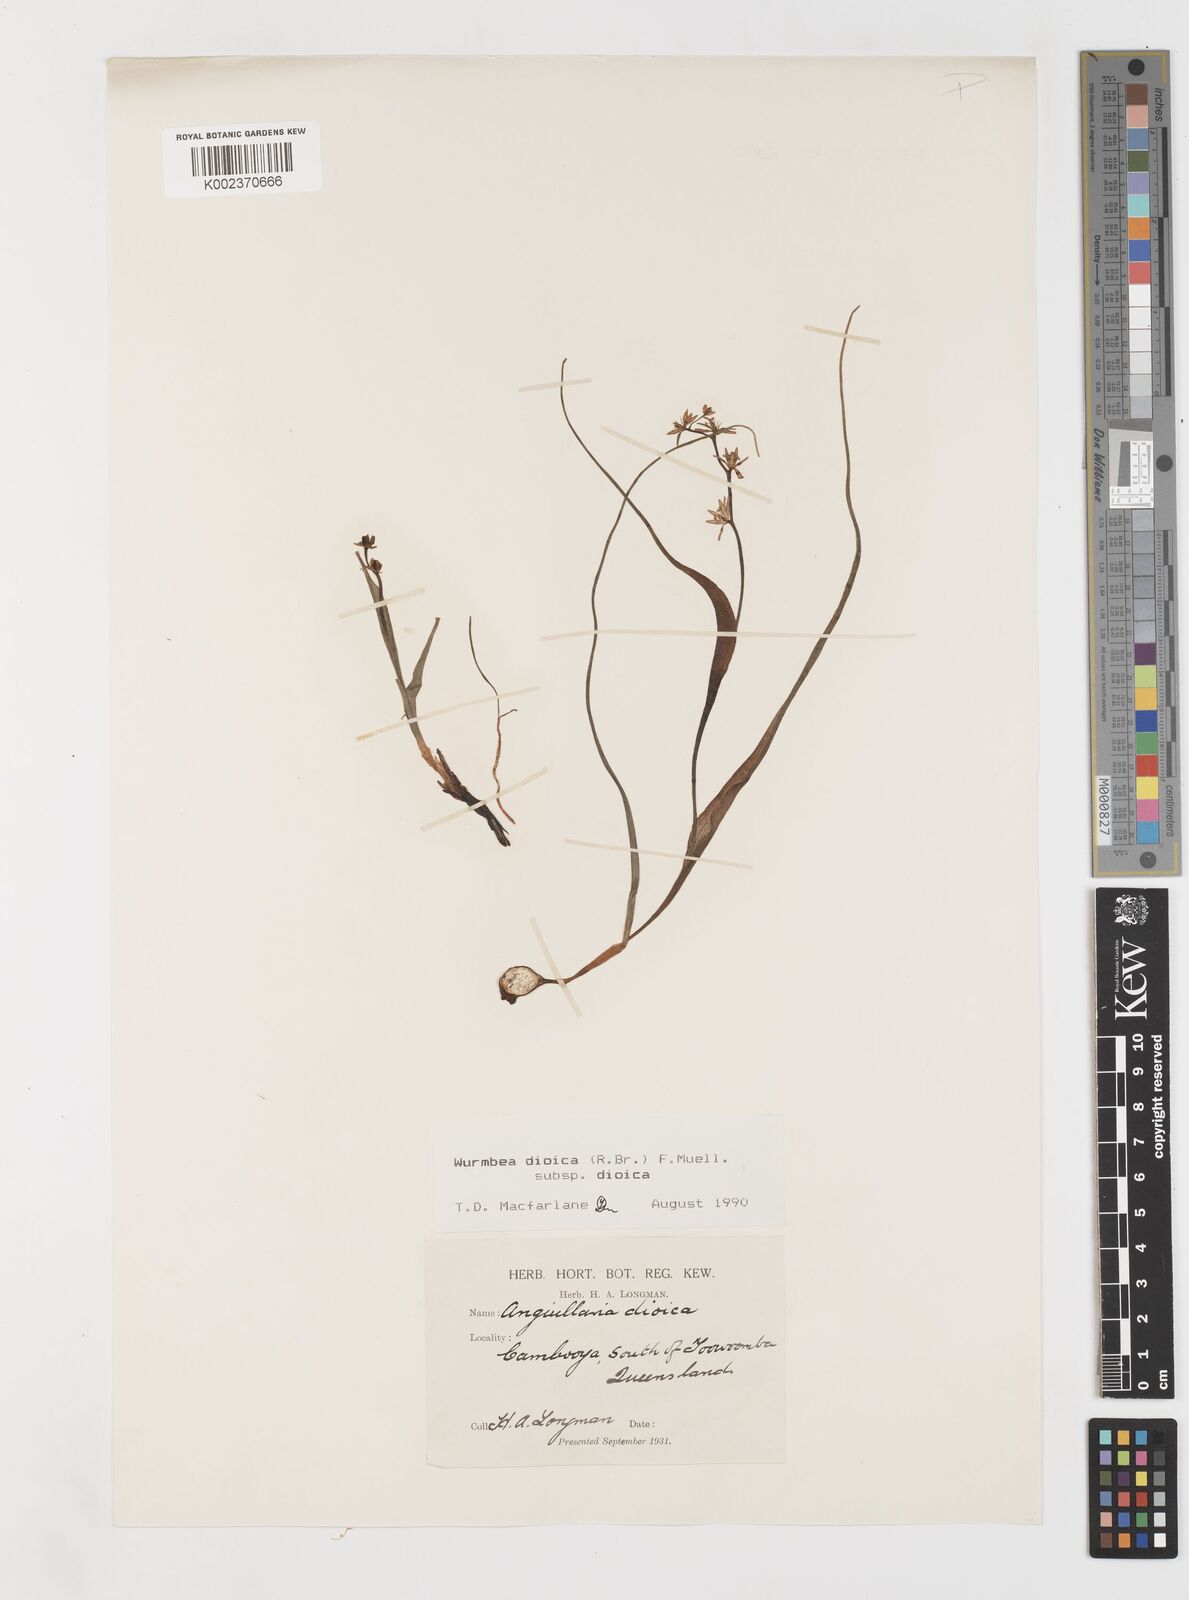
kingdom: Plantae
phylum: Tracheophyta
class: Liliopsida
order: Liliales
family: Colchicaceae
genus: Wurmbea
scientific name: Wurmbea dioica
